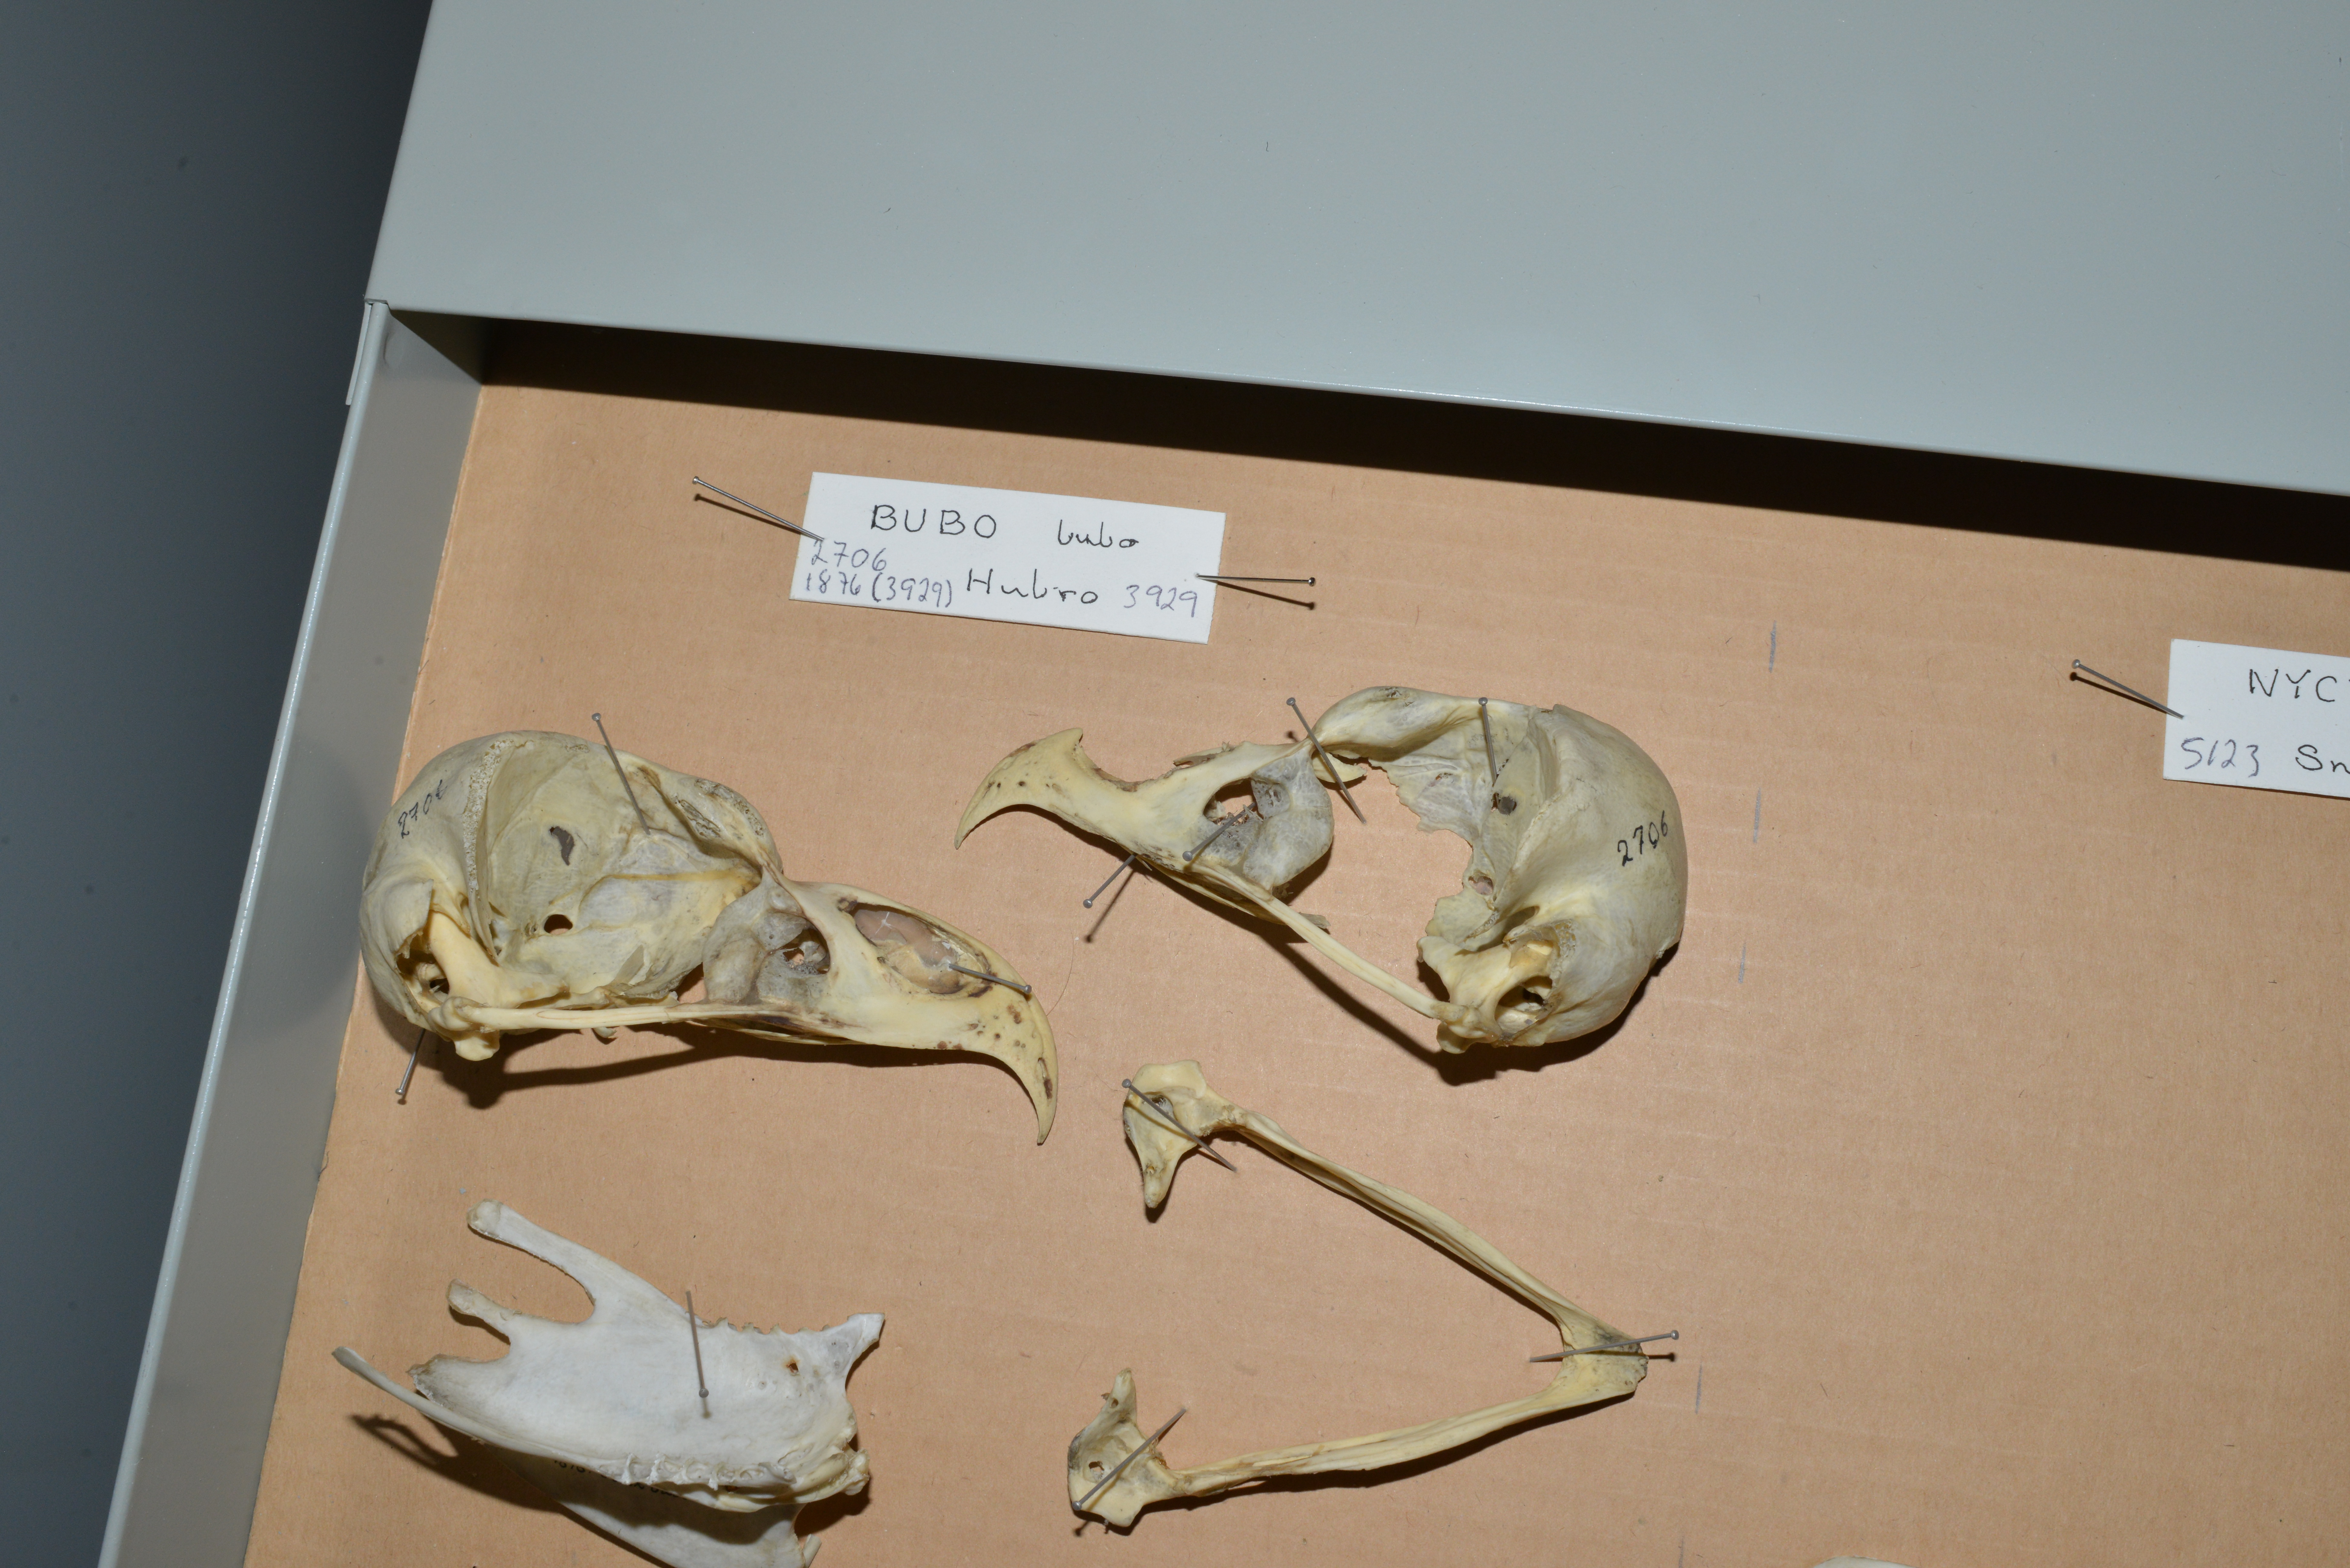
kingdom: Animalia
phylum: Chordata
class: Aves
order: Strigiformes
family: Strigidae
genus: Bubo
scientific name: Bubo bubo
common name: Eurasian eagle-owl
